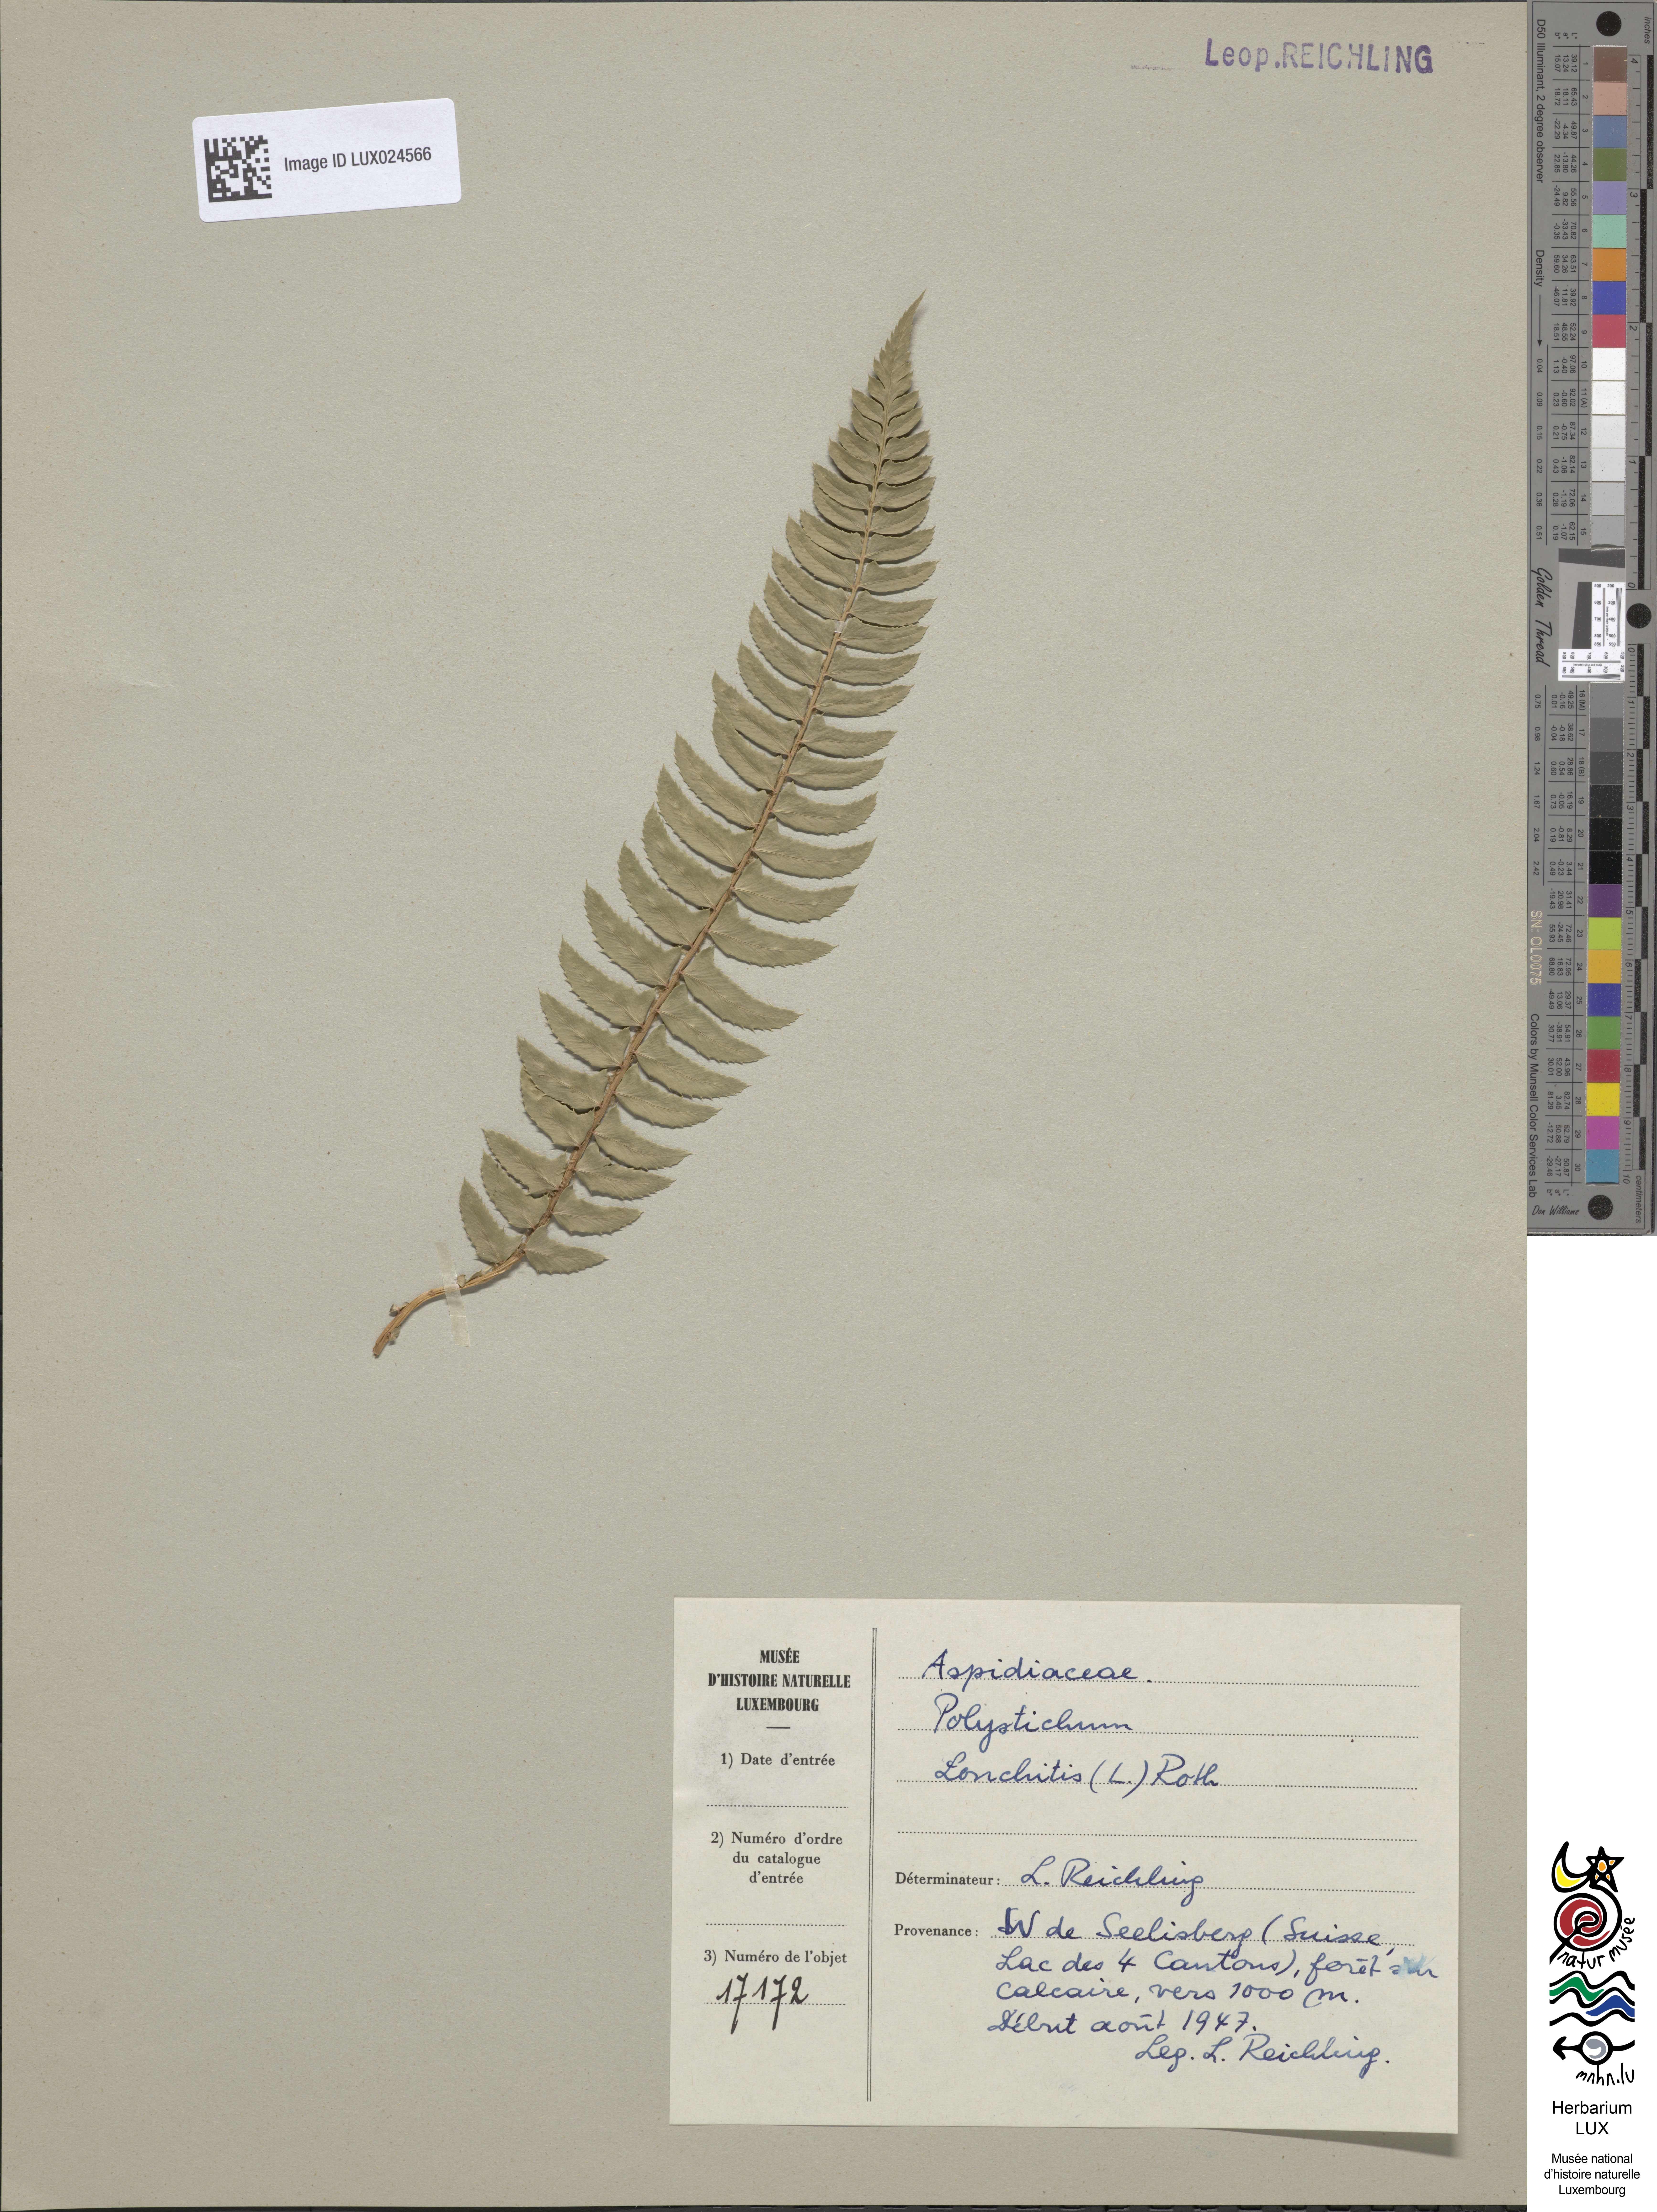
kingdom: Plantae
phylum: Tracheophyta
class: Polypodiopsida
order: Polypodiales
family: Dryopteridaceae
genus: Polystichum
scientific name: Polystichum lonchitis
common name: Holly fern
